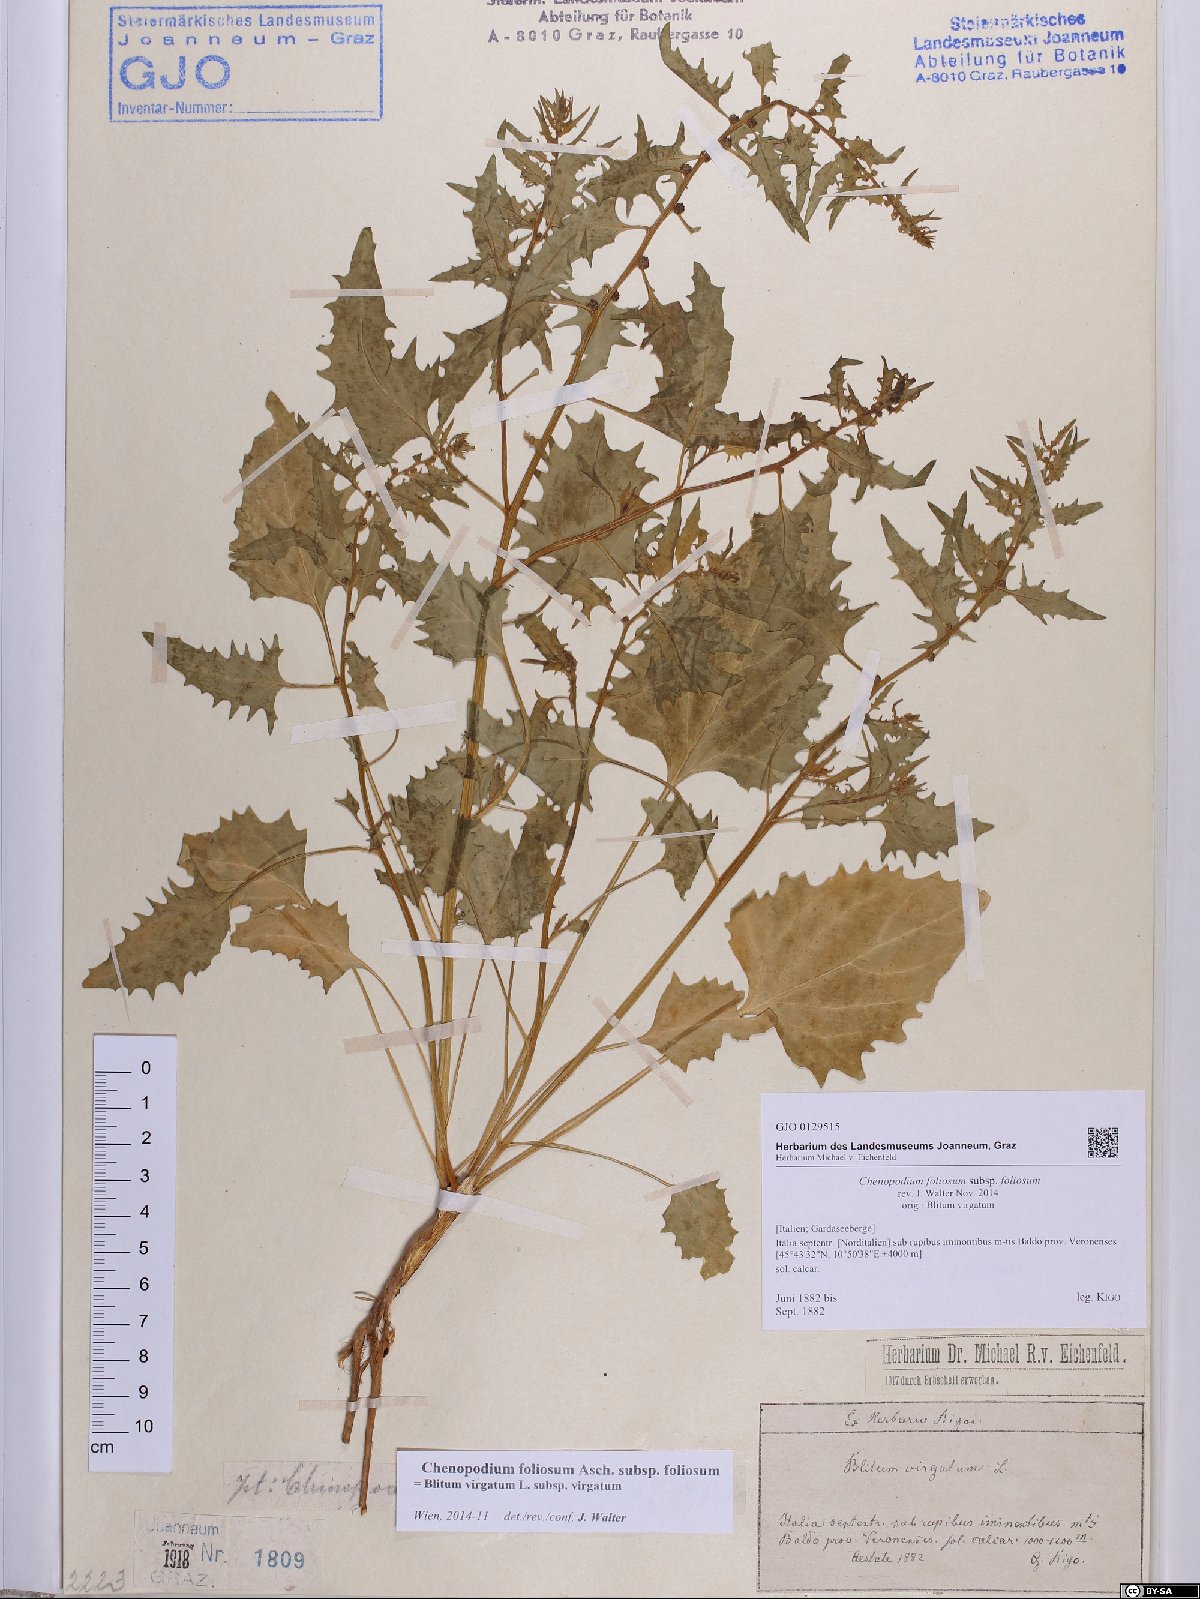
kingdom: Plantae
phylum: Tracheophyta
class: Magnoliopsida
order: Caryophyllales
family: Amaranthaceae
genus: Blitum
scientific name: Blitum virgatum
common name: Strawberry goosefoot
